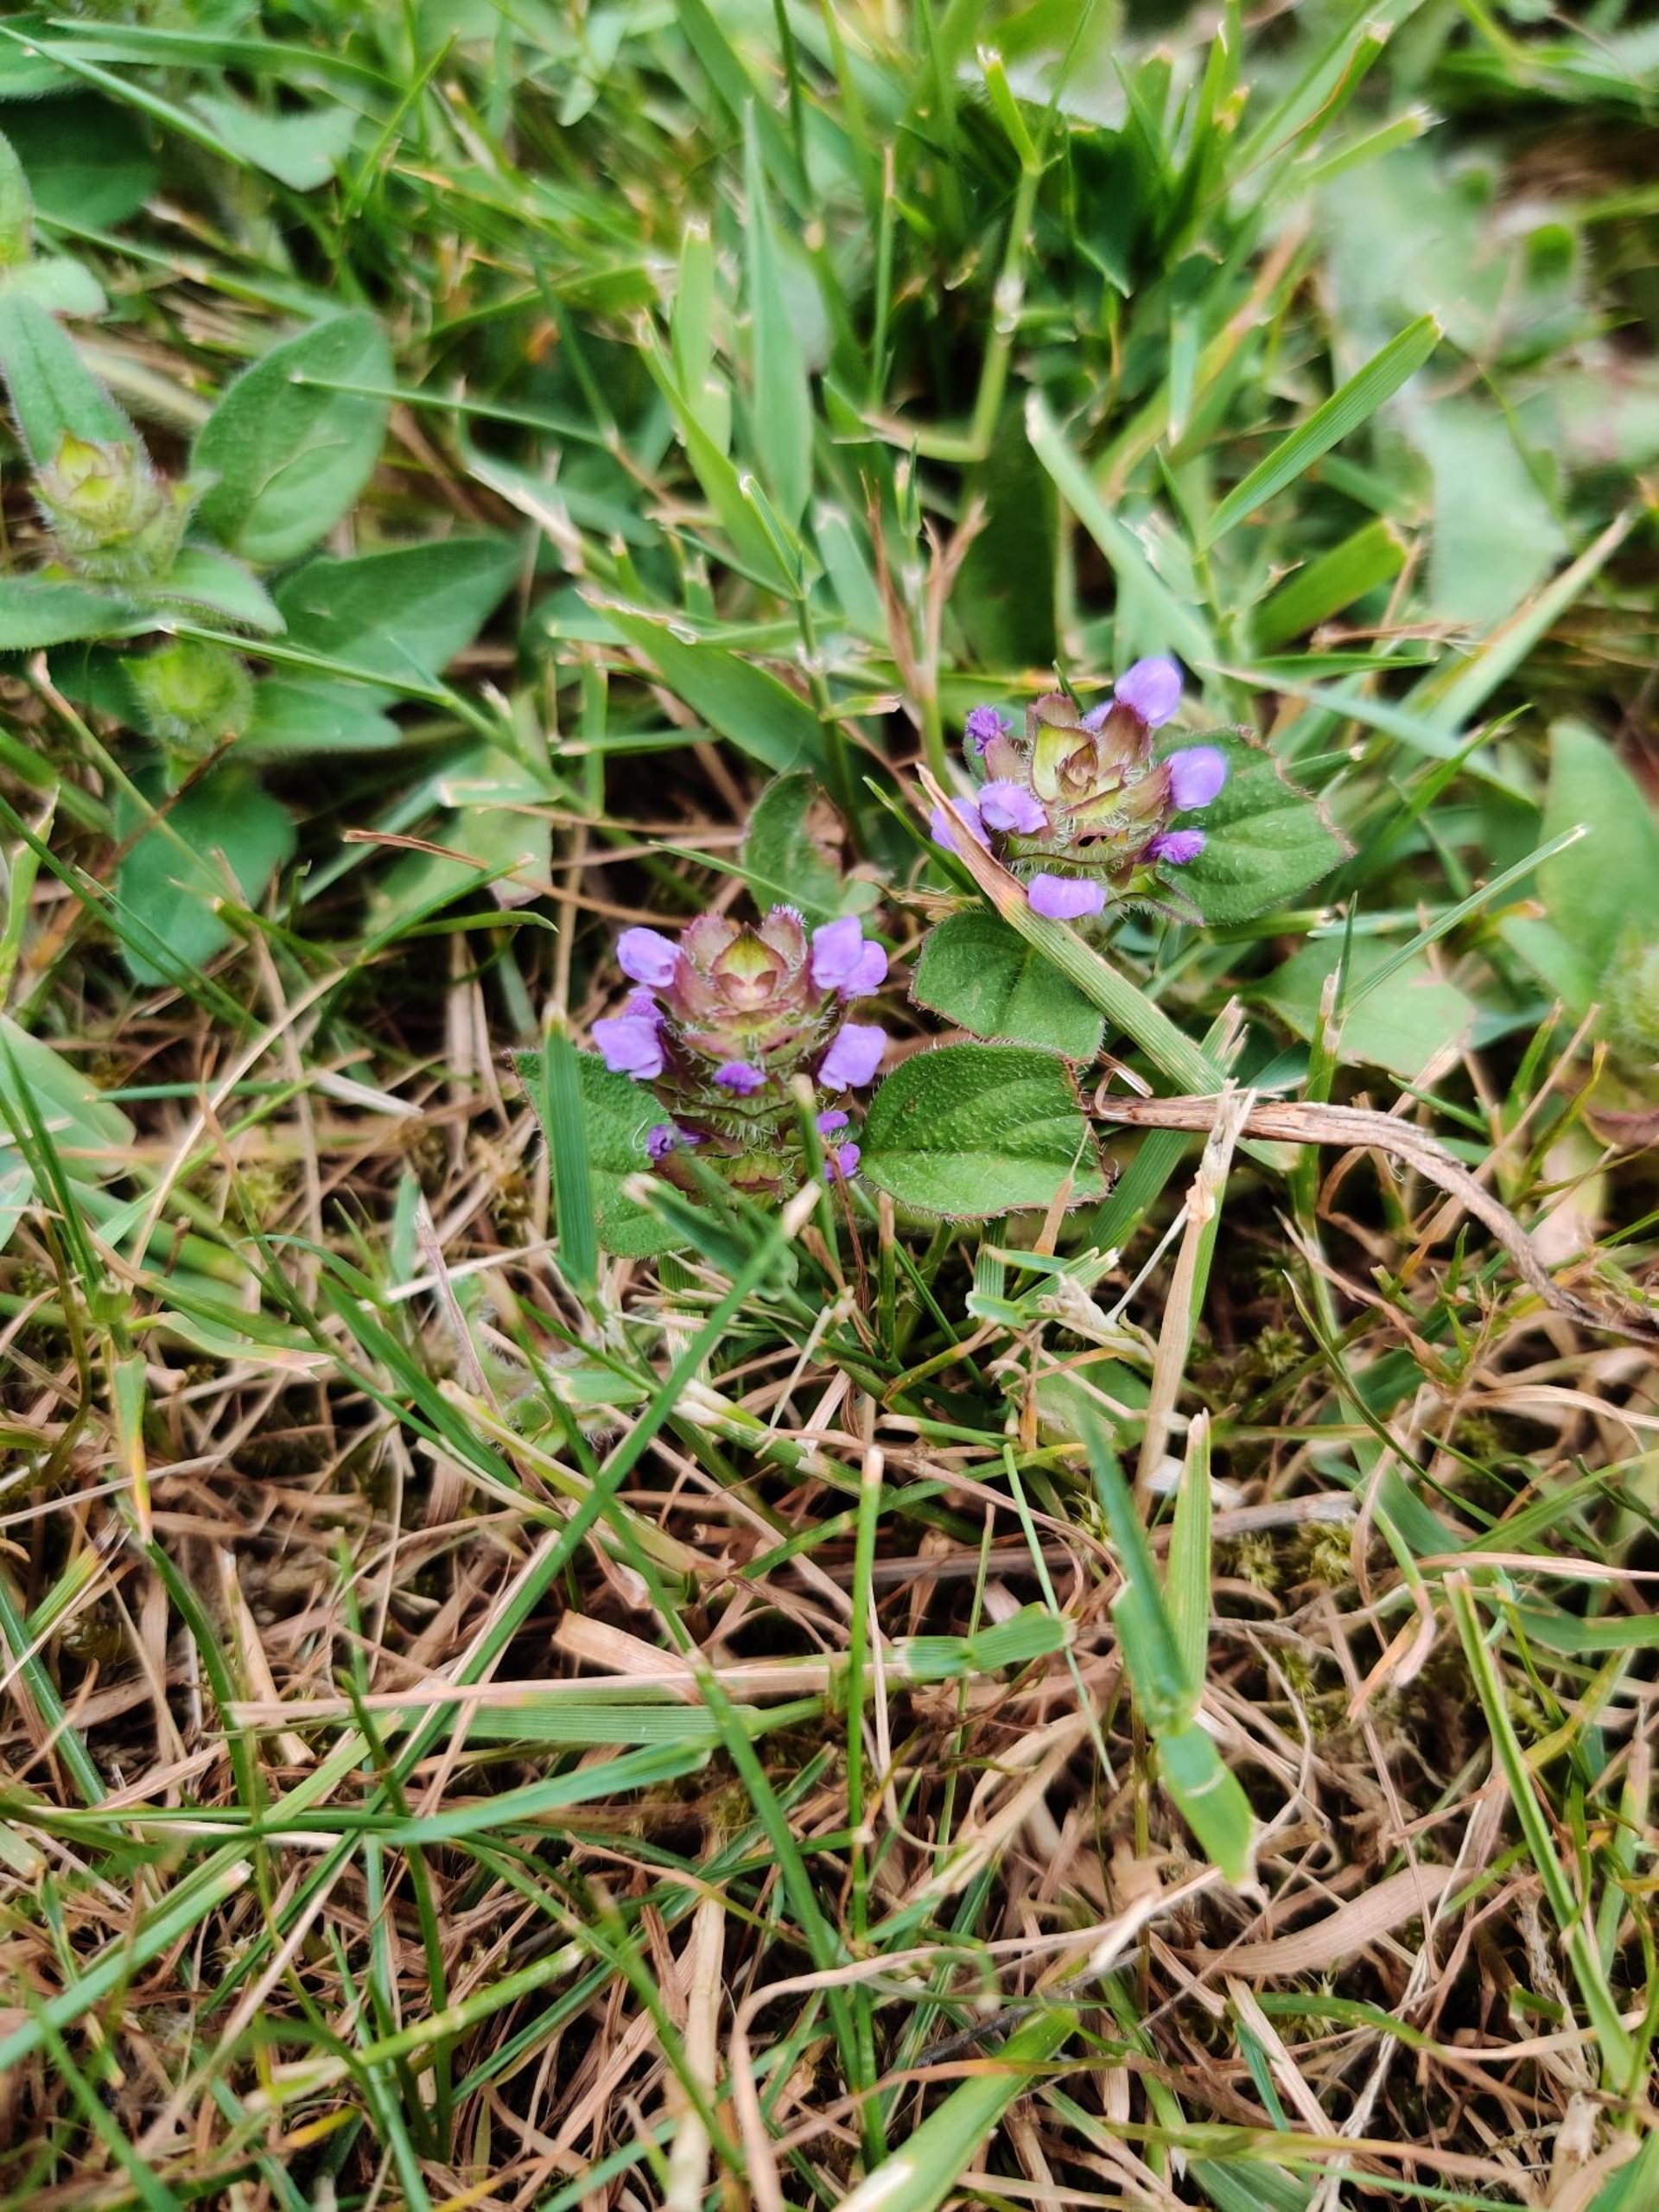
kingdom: Plantae
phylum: Tracheophyta
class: Magnoliopsida
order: Lamiales
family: Lamiaceae
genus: Prunella
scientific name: Prunella vulgaris
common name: Almindelig brunelle
